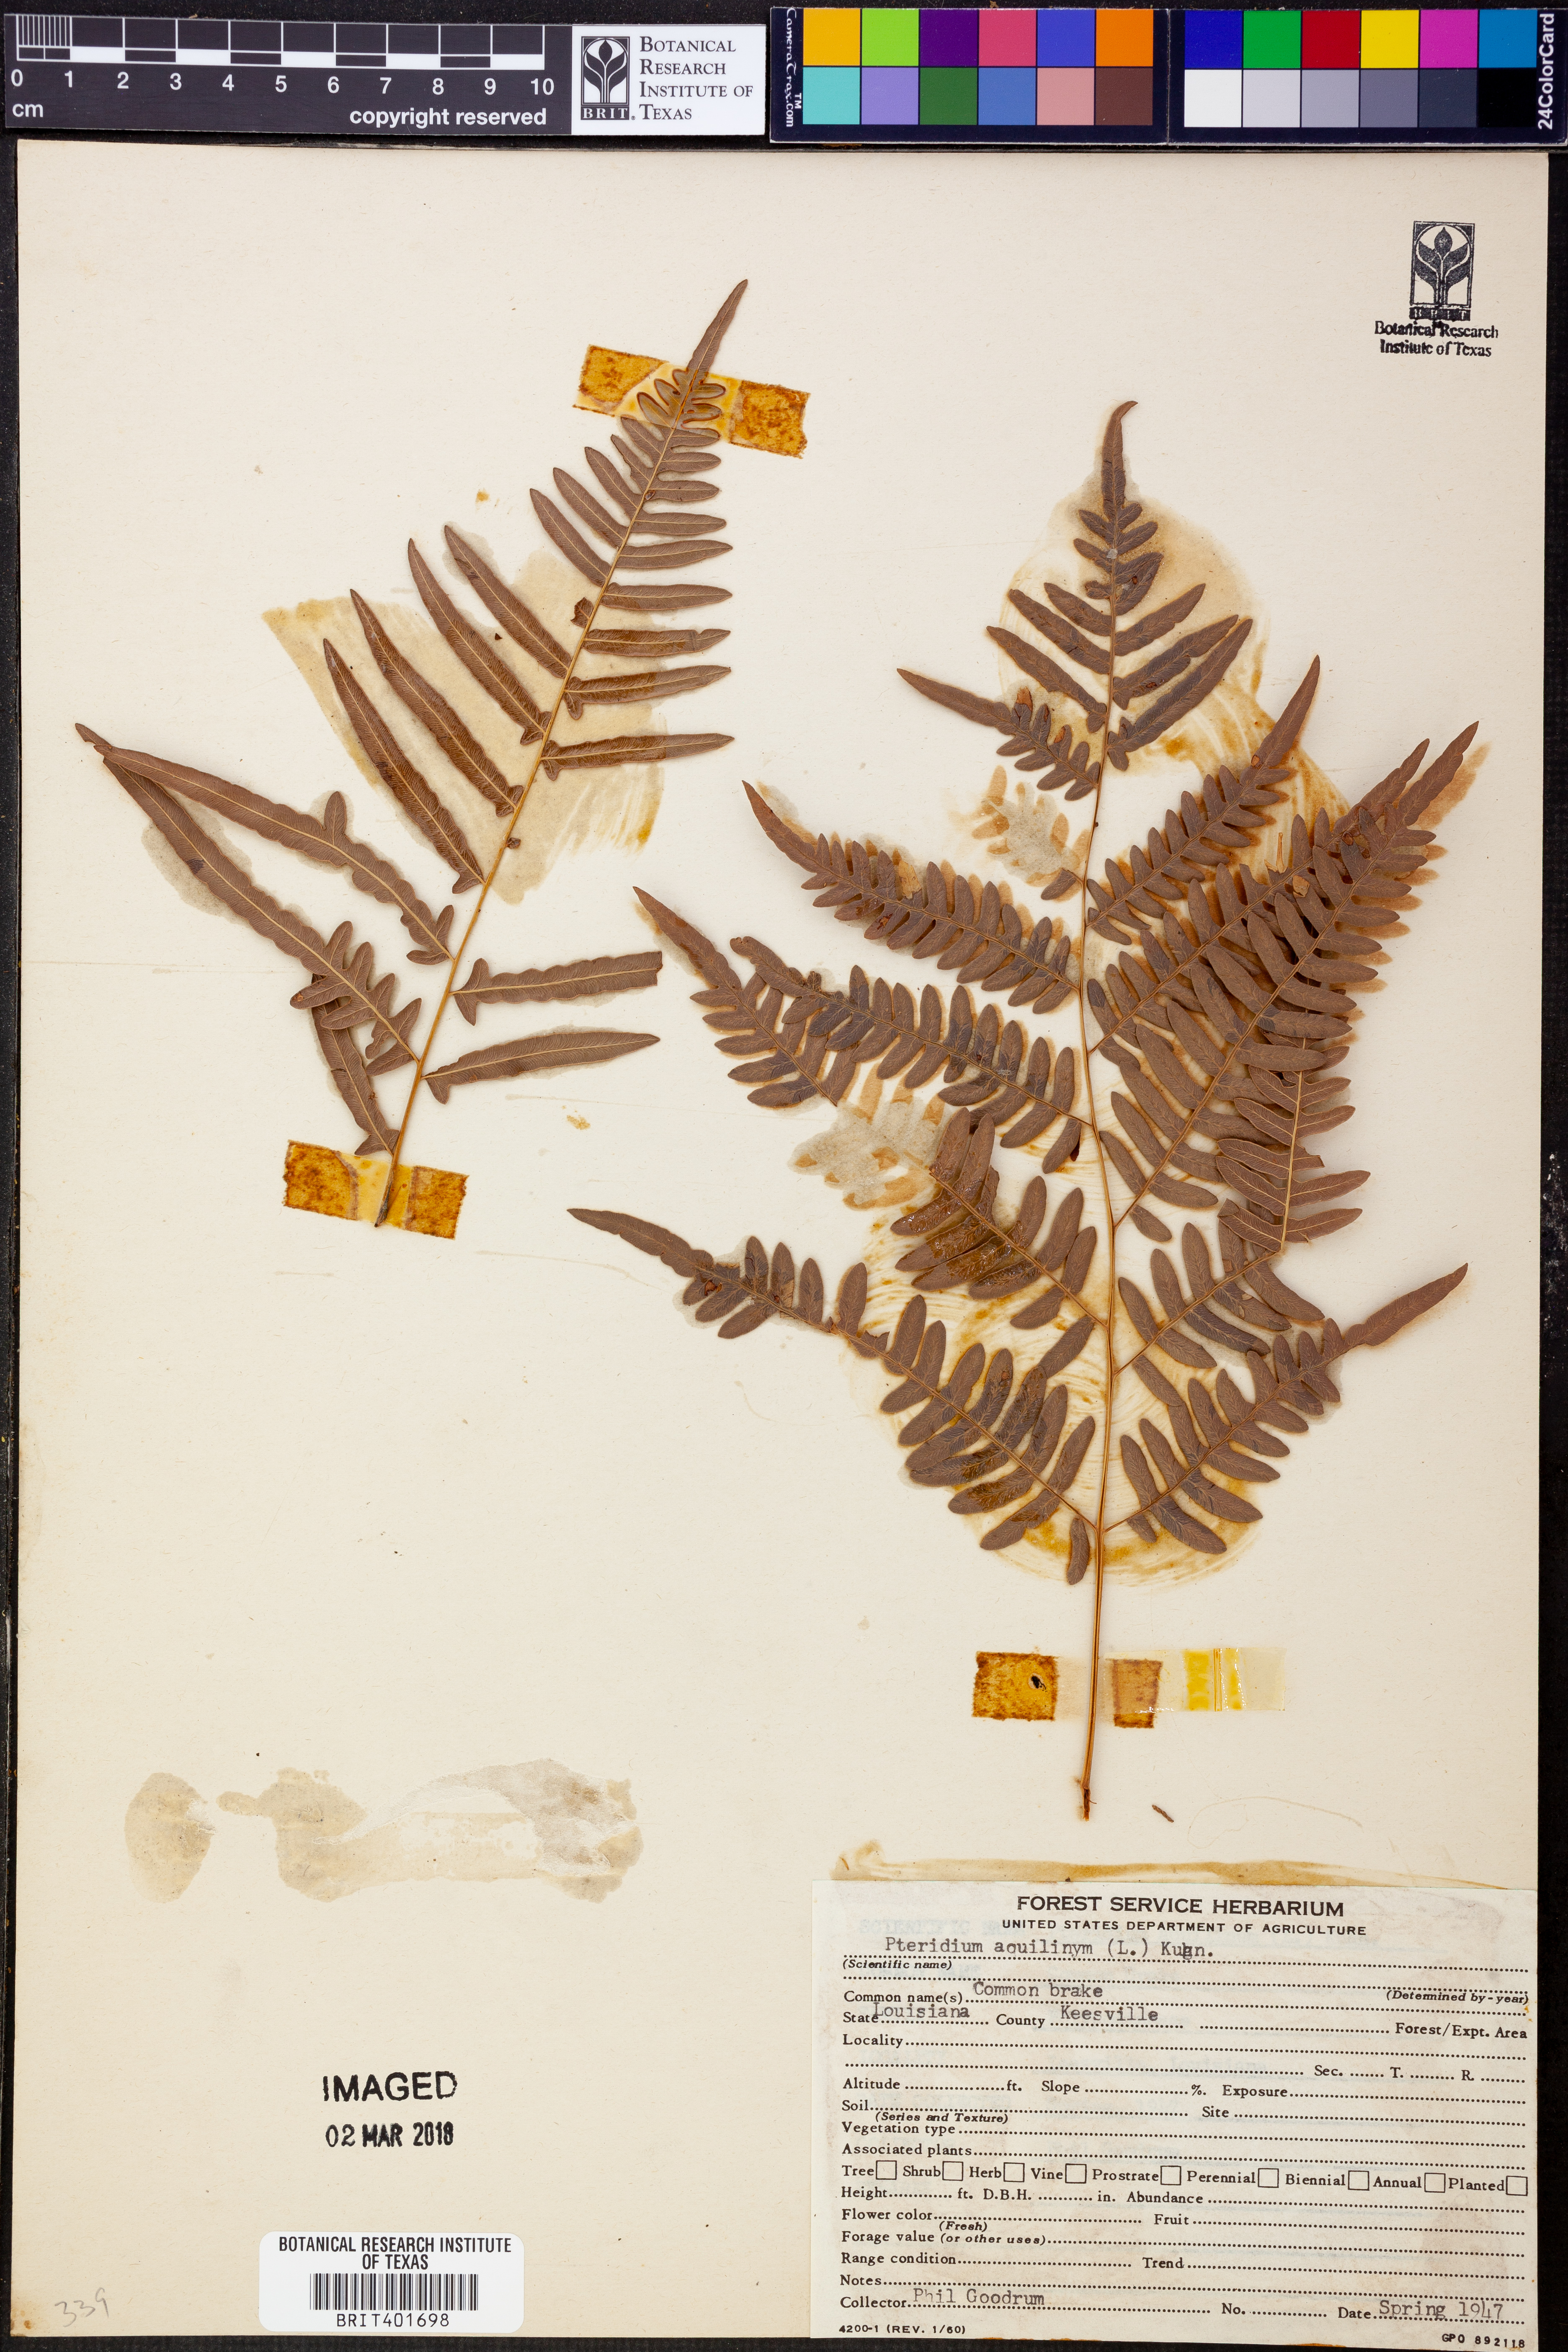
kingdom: Plantae
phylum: Tracheophyta
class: Polypodiopsida
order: Polypodiales
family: Dennstaedtiaceae
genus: Pteridium
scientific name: Pteridium aquilinum
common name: Bracken
